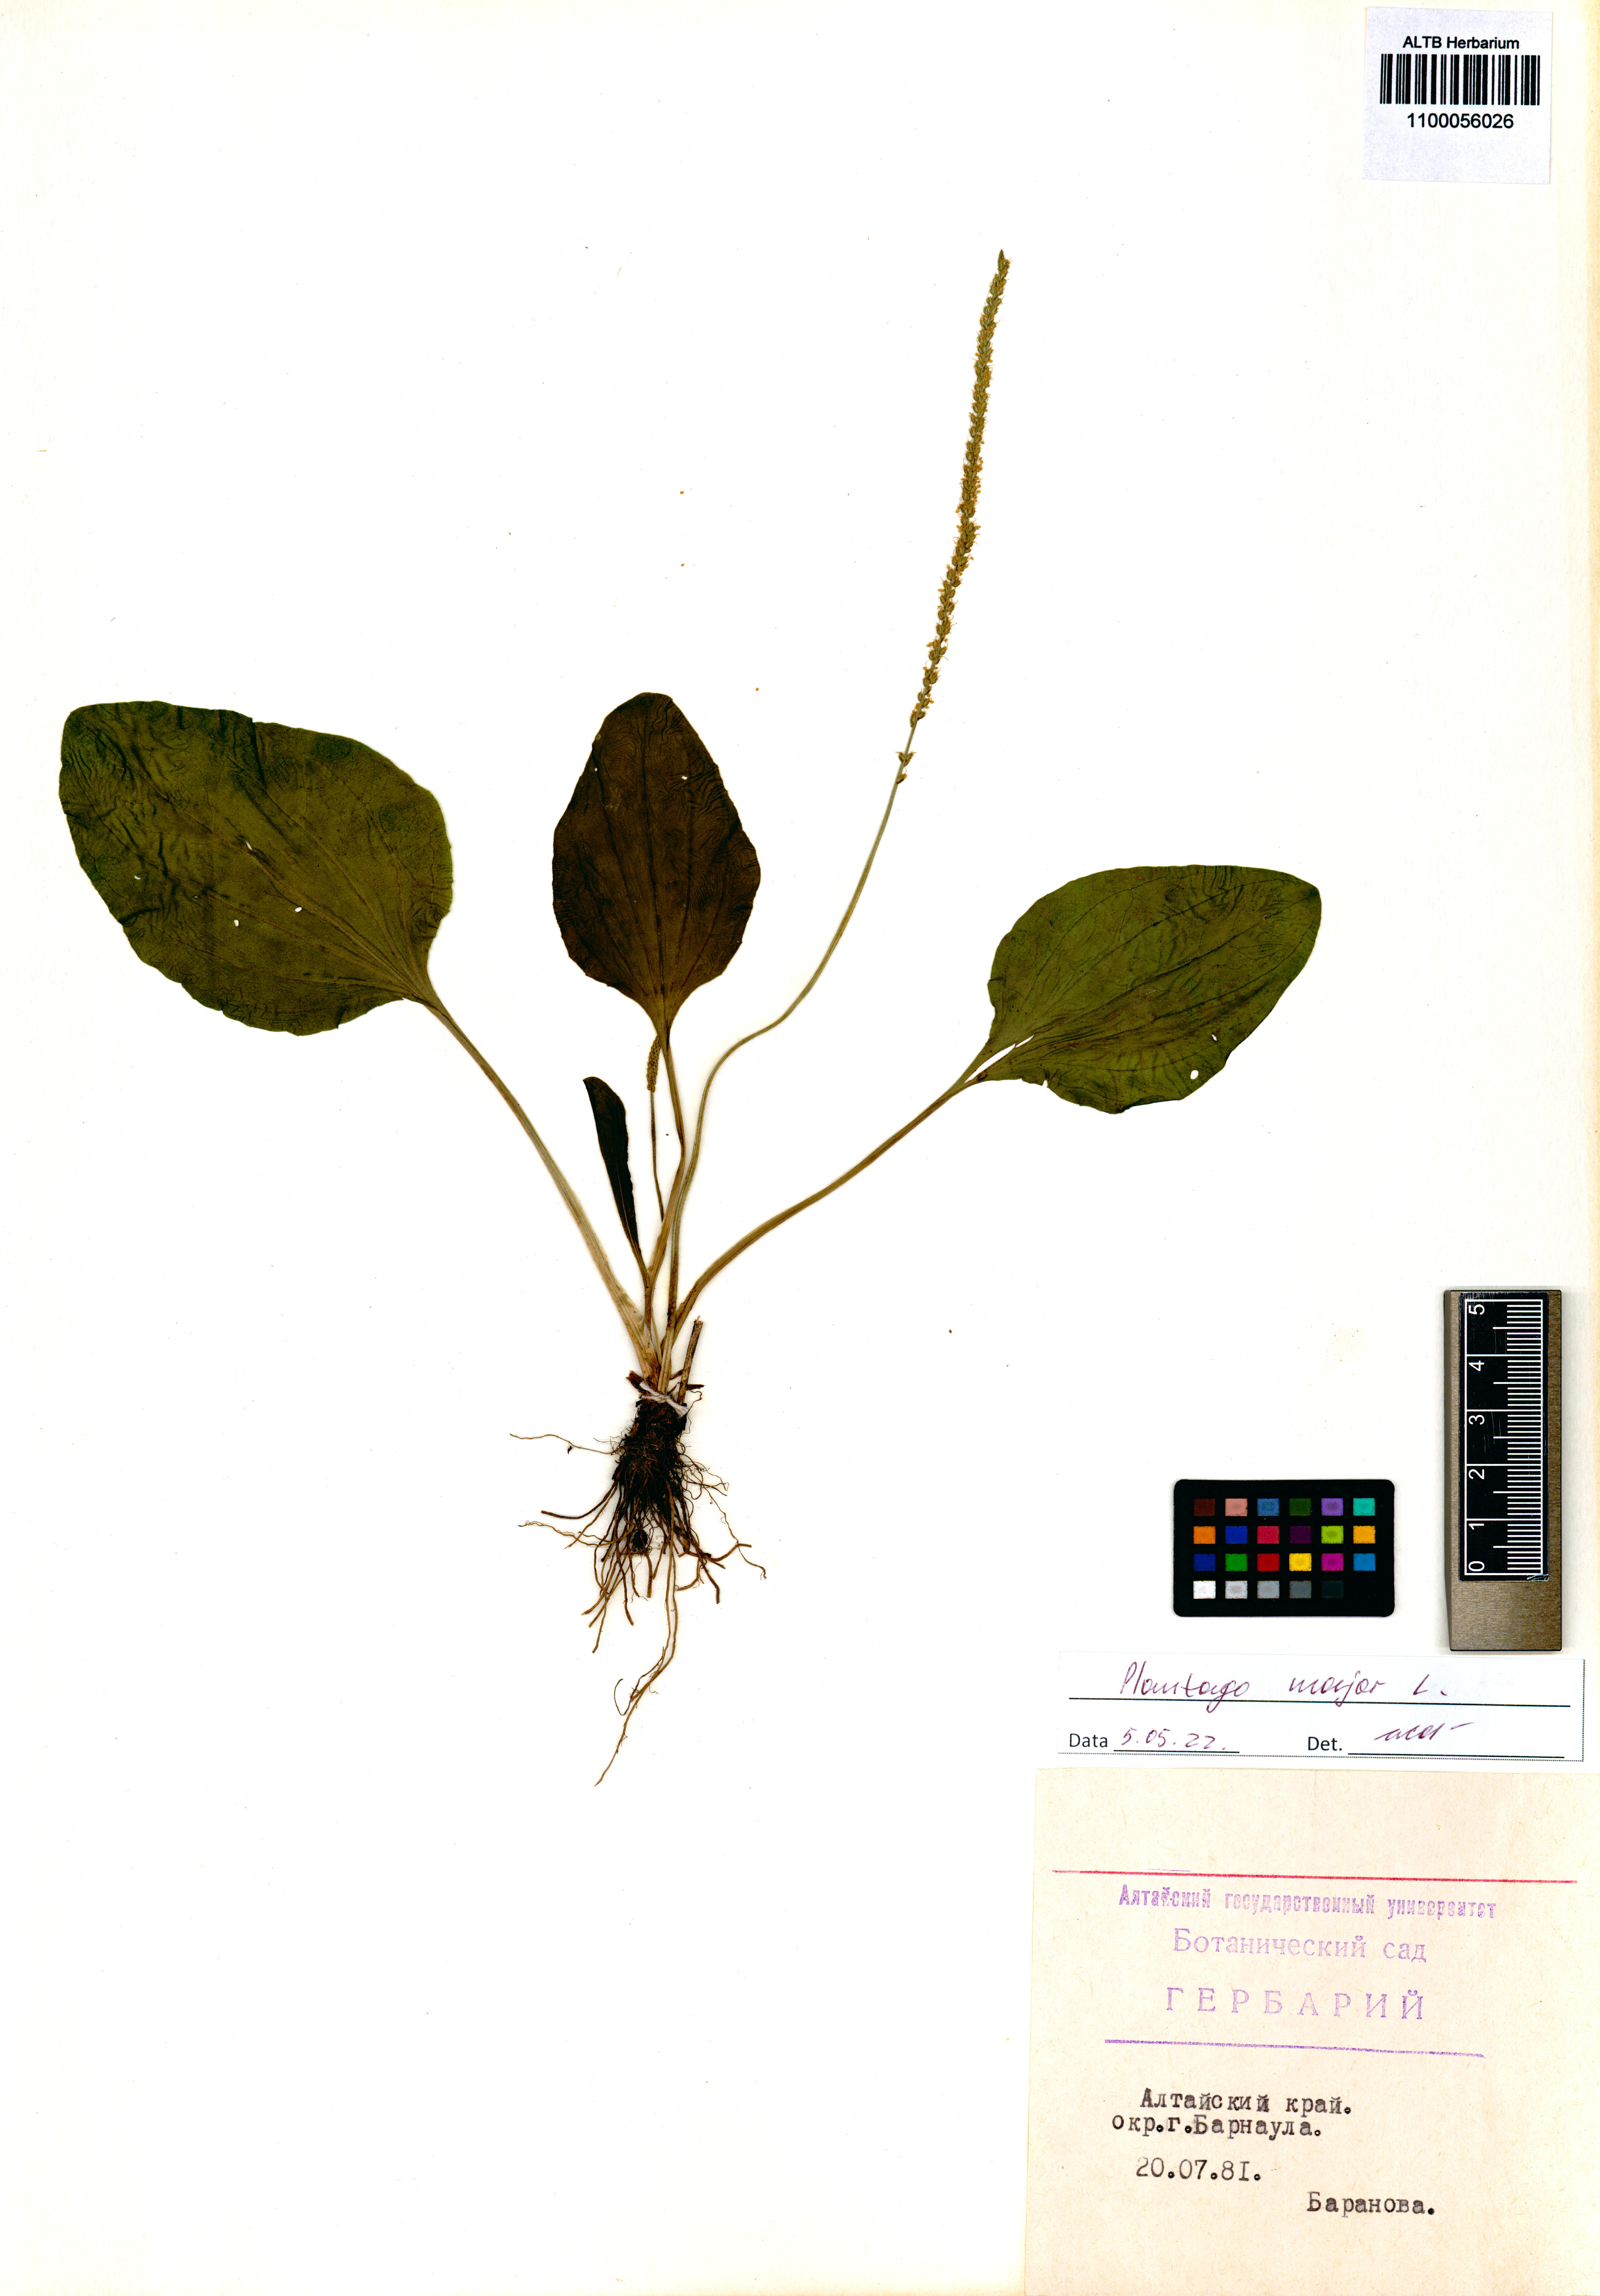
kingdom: Plantae
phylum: Tracheophyta
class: Magnoliopsida
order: Lamiales
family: Plantaginaceae
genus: Plantago
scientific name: Plantago major
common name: Common plantain
